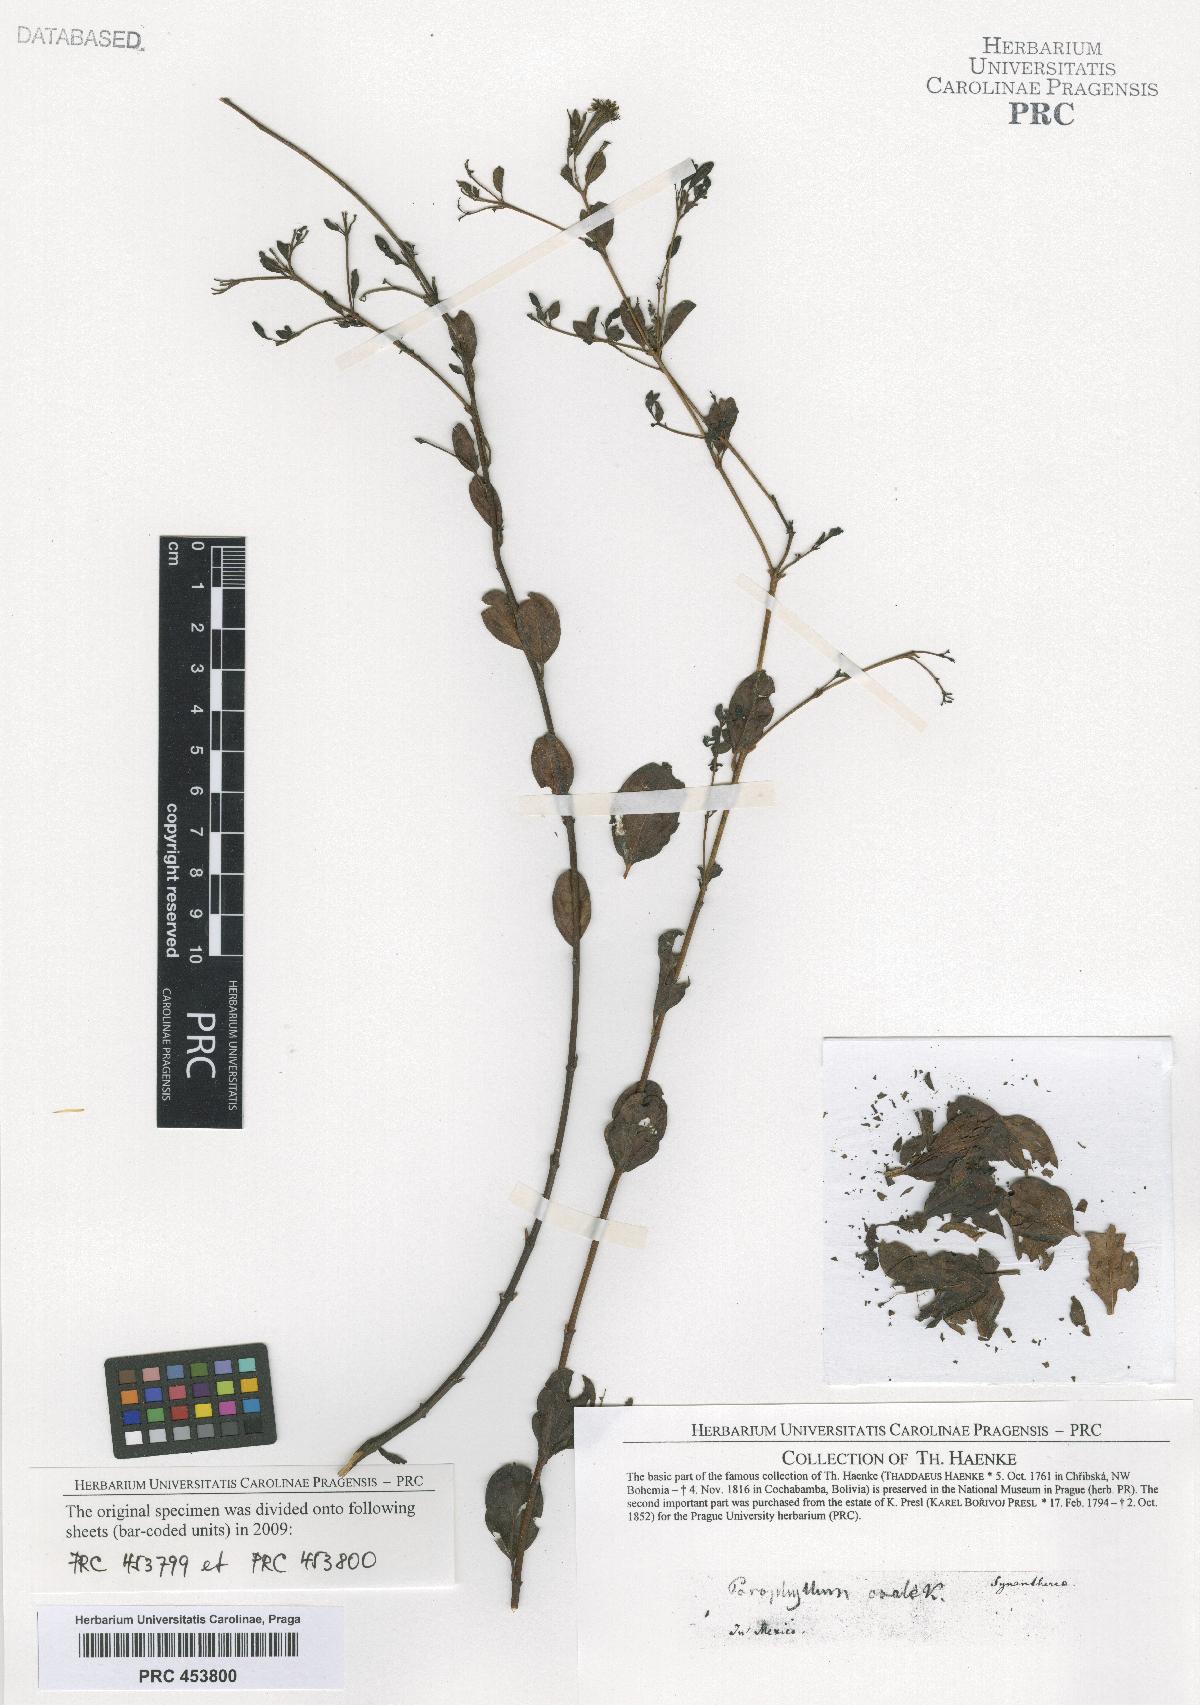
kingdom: Plantae
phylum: Tracheophyta
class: Magnoliopsida
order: Asterales
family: Asteraceae
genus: Porophyllum
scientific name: Porophyllum
